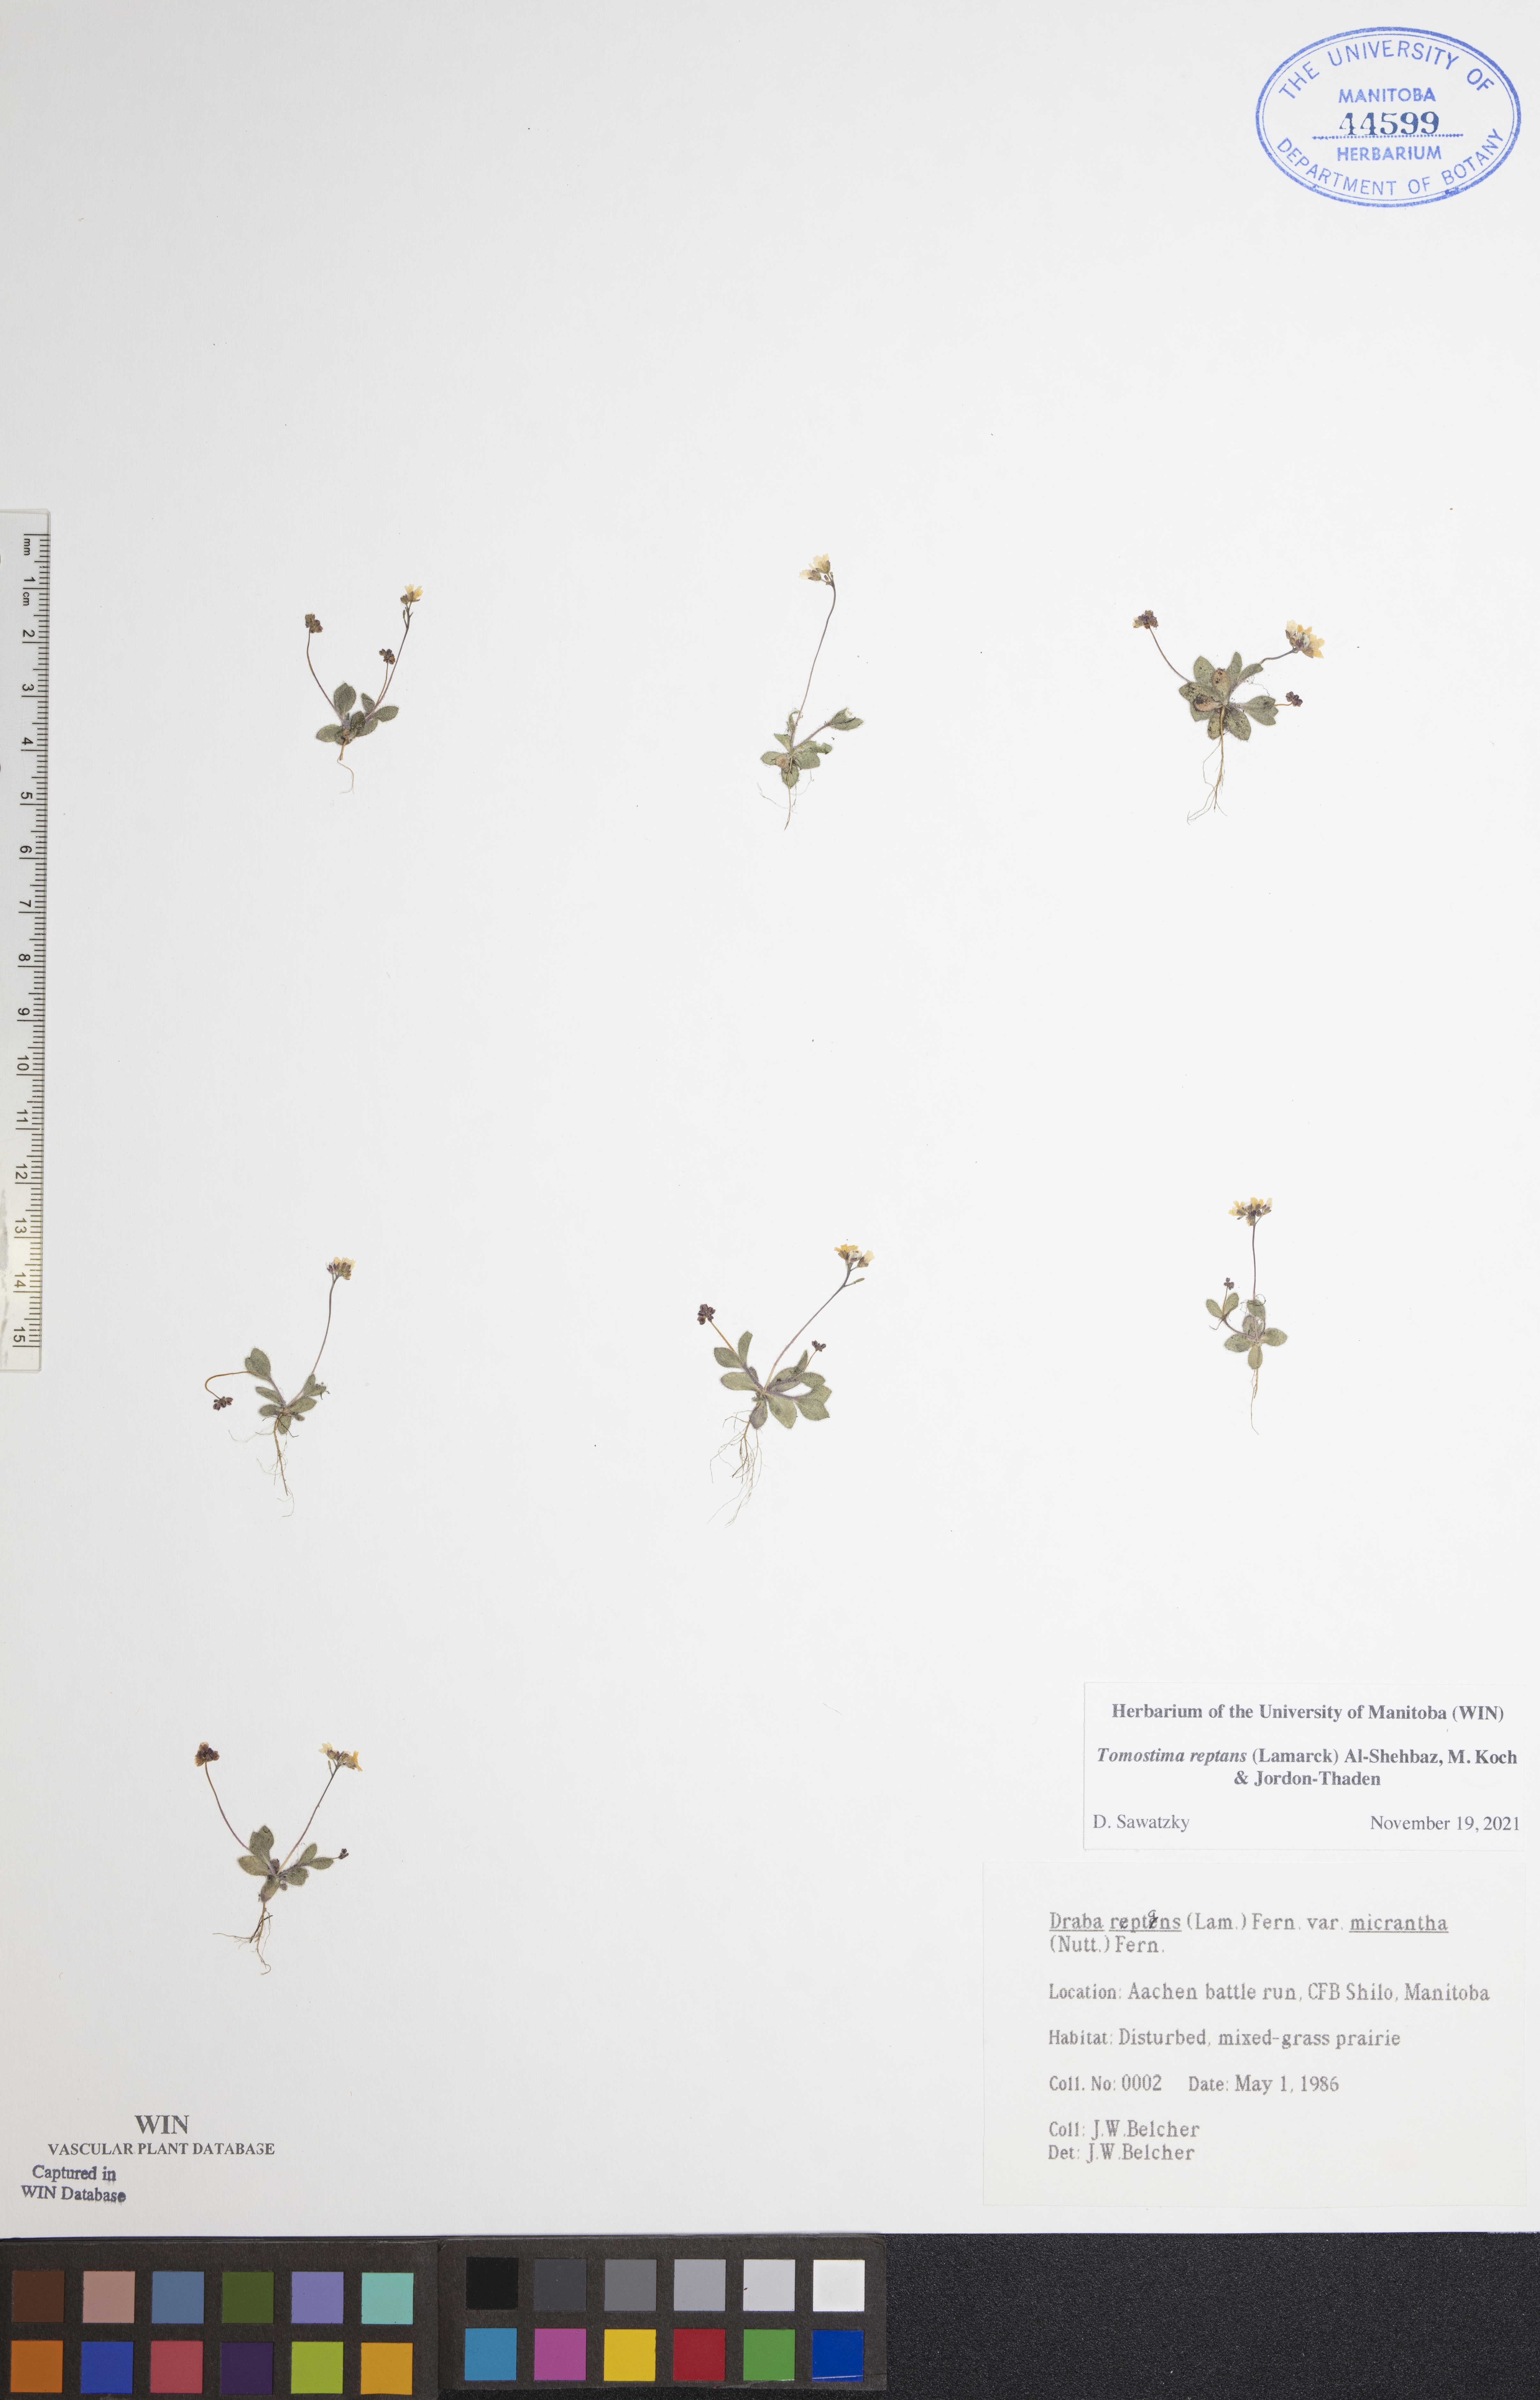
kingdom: Plantae
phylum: Tracheophyta
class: Magnoliopsida
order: Brassicales
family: Brassicaceae
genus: Tomostima
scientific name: Tomostima reptans
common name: Carolina draba
